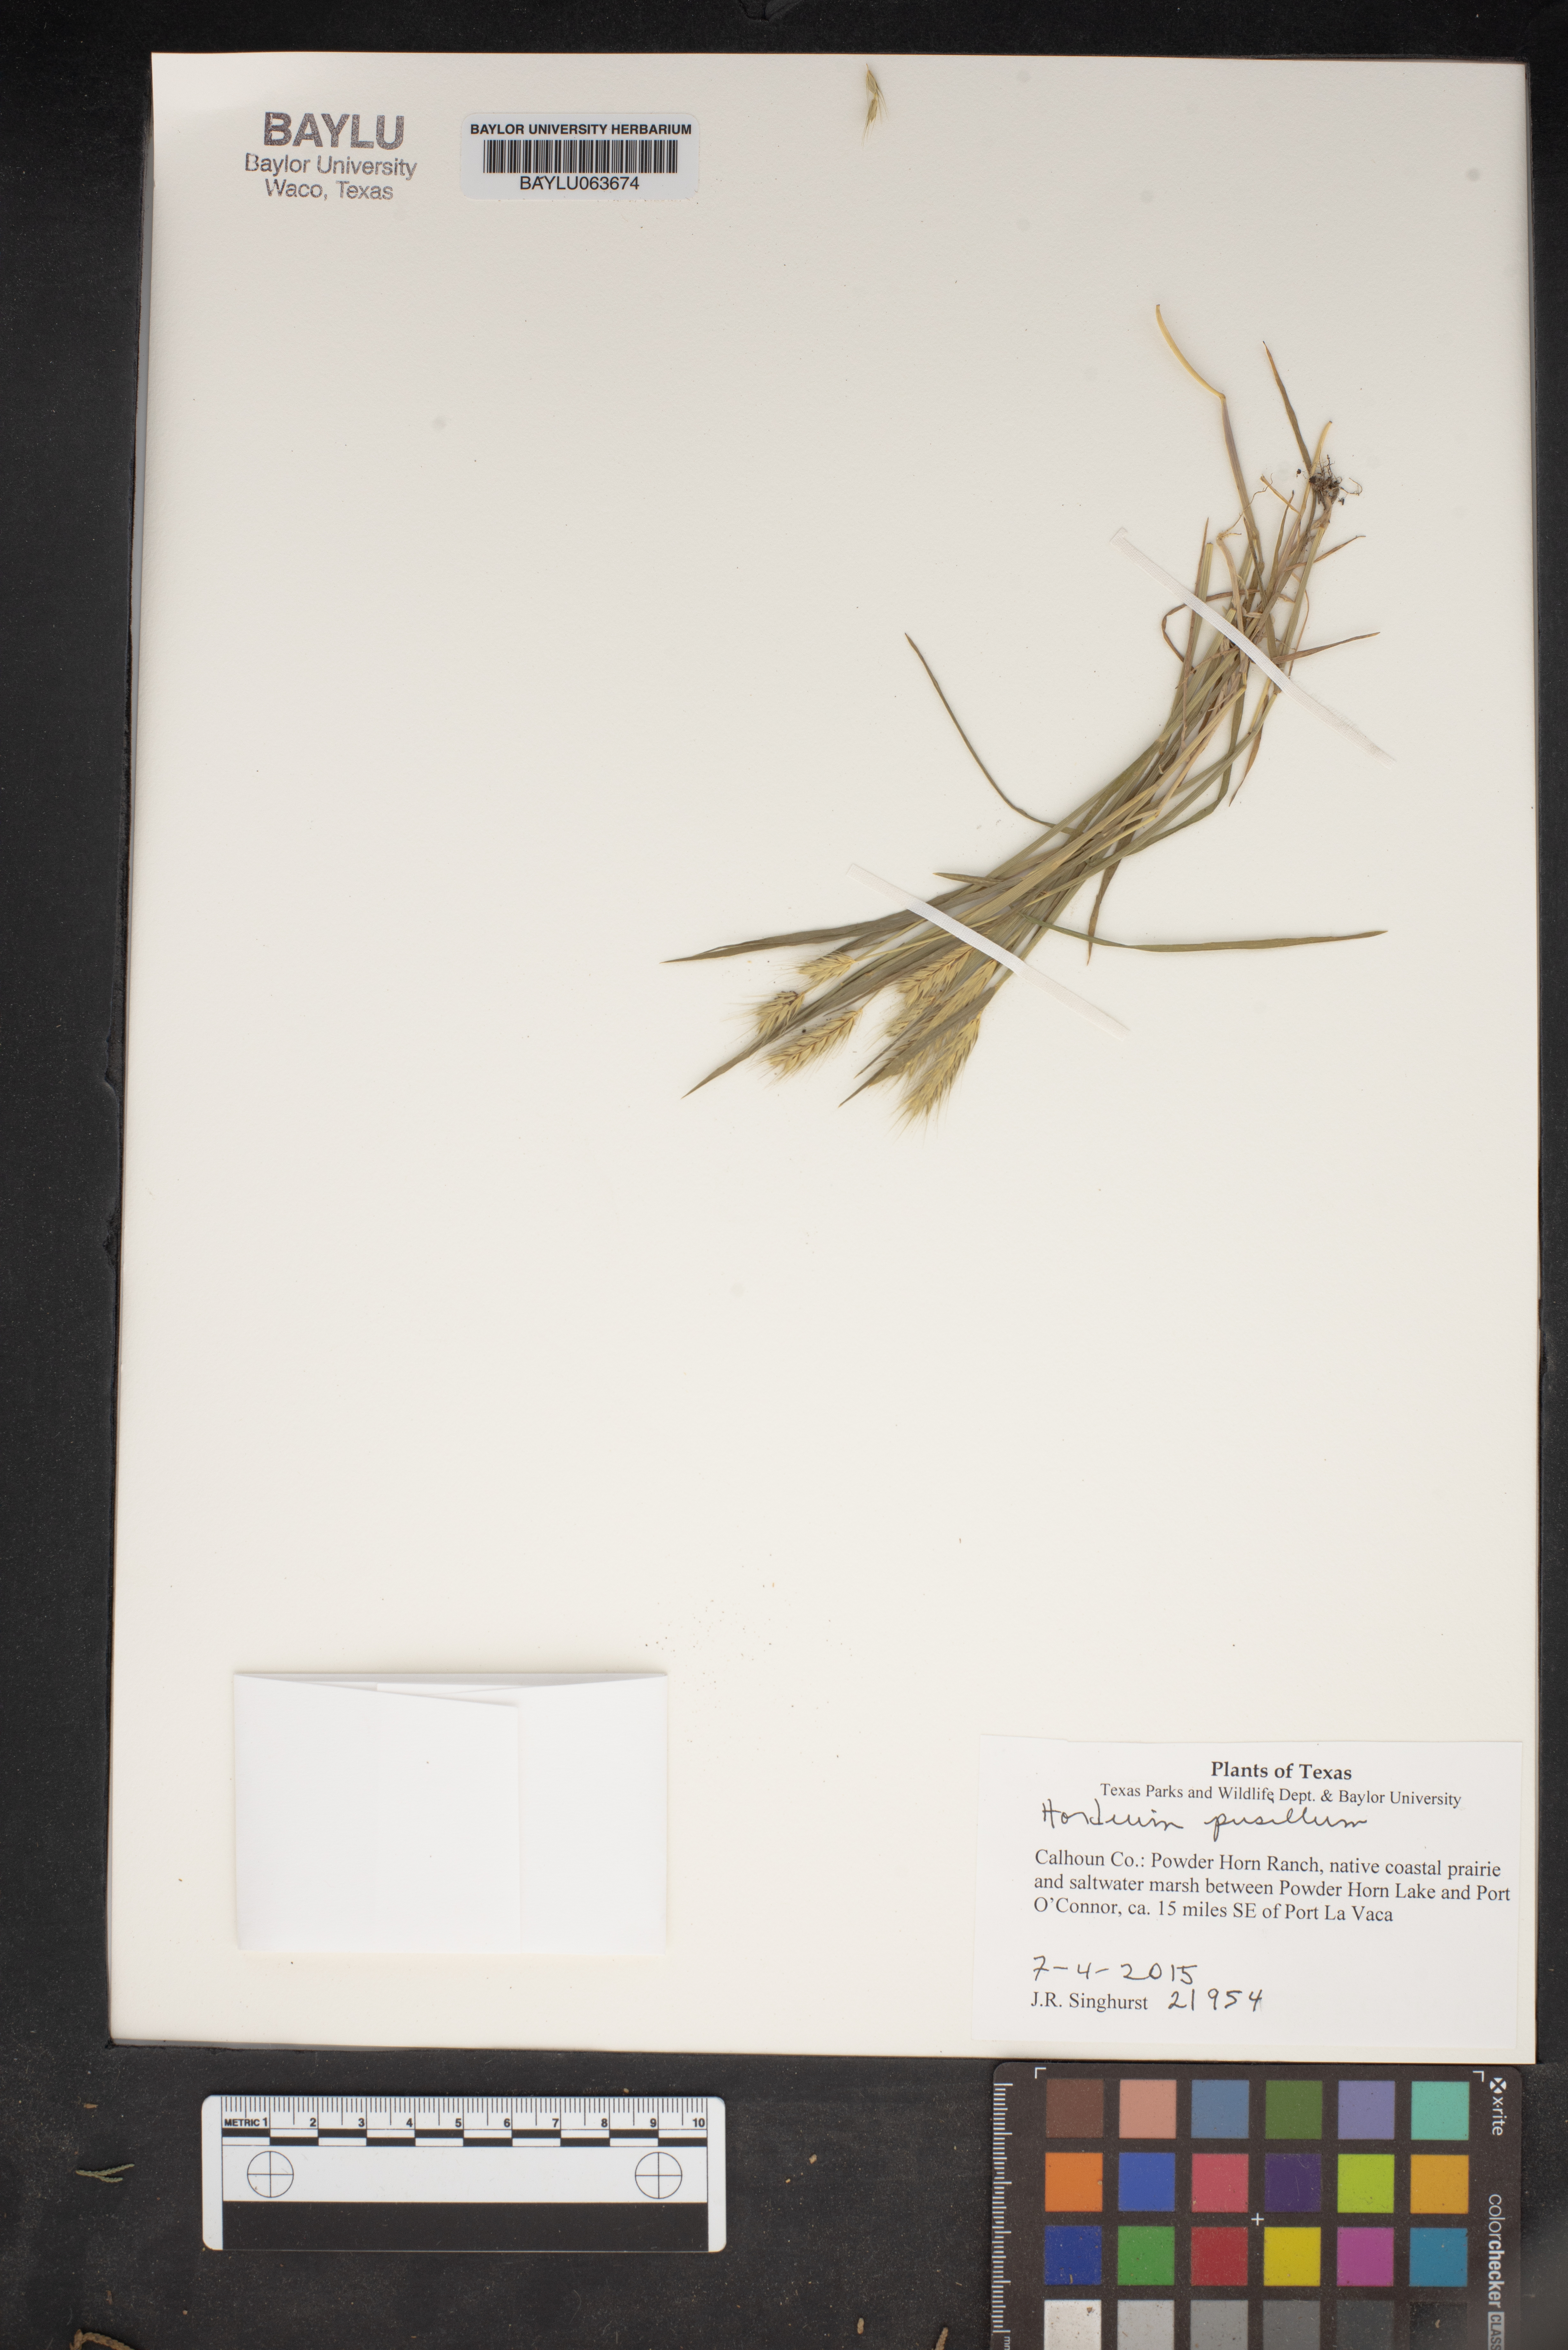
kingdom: Plantae
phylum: Tracheophyta
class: Liliopsida
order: Poales
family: Poaceae
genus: Hordeum
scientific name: Hordeum pusillum
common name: Little barley
